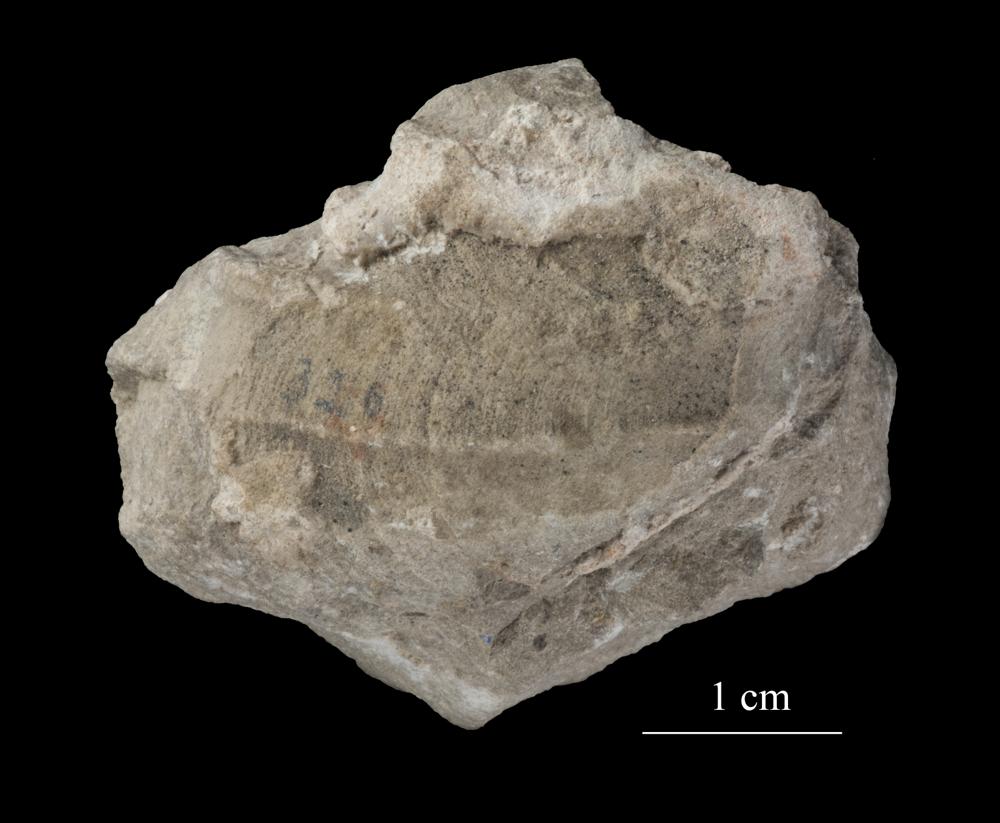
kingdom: Animalia
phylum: Mollusca
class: Gastropoda
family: Lophospiridae
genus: Ruedemannia
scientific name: Ruedemannia Worthenia borkholmiensis
